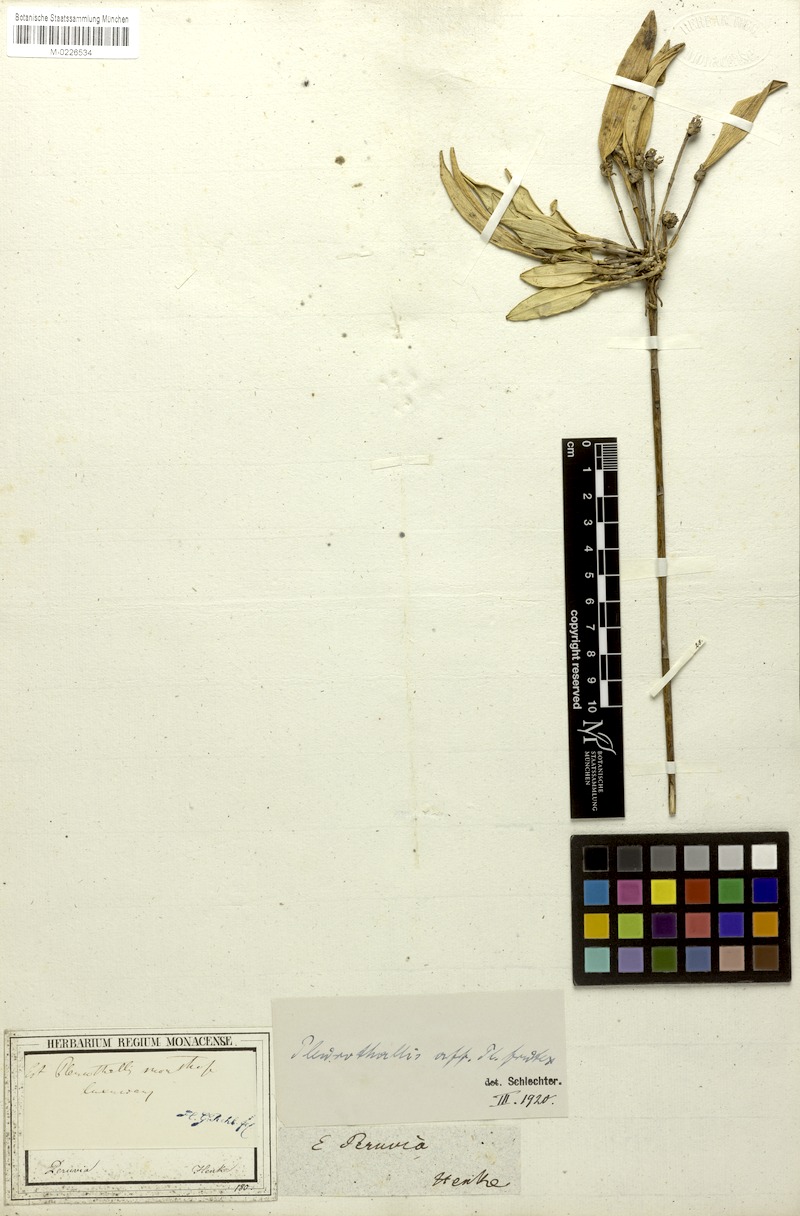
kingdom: Plantae
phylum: Tracheophyta
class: Liliopsida
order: Asparagales
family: Orchidaceae
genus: Myoxanthus
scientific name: Myoxanthus frutex
